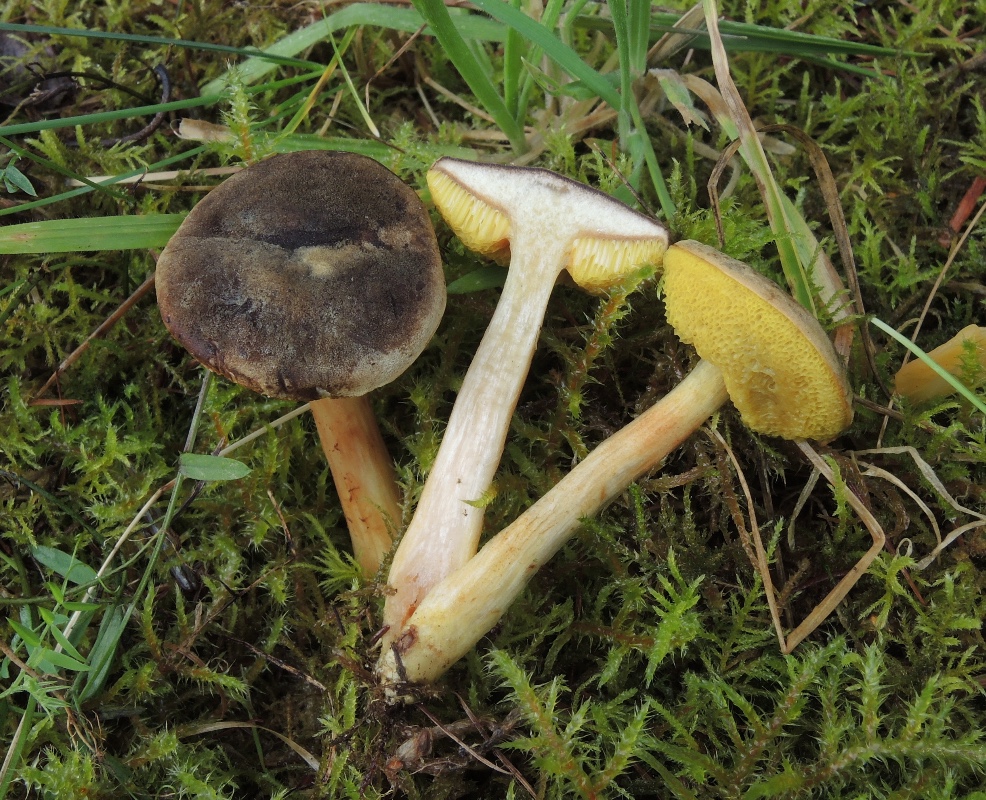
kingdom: Fungi
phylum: Basidiomycota
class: Agaricomycetes
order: Boletales
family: Boletaceae
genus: Xerocomus
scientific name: Xerocomus ferrugineus
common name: vaskeskinds-rørhat
